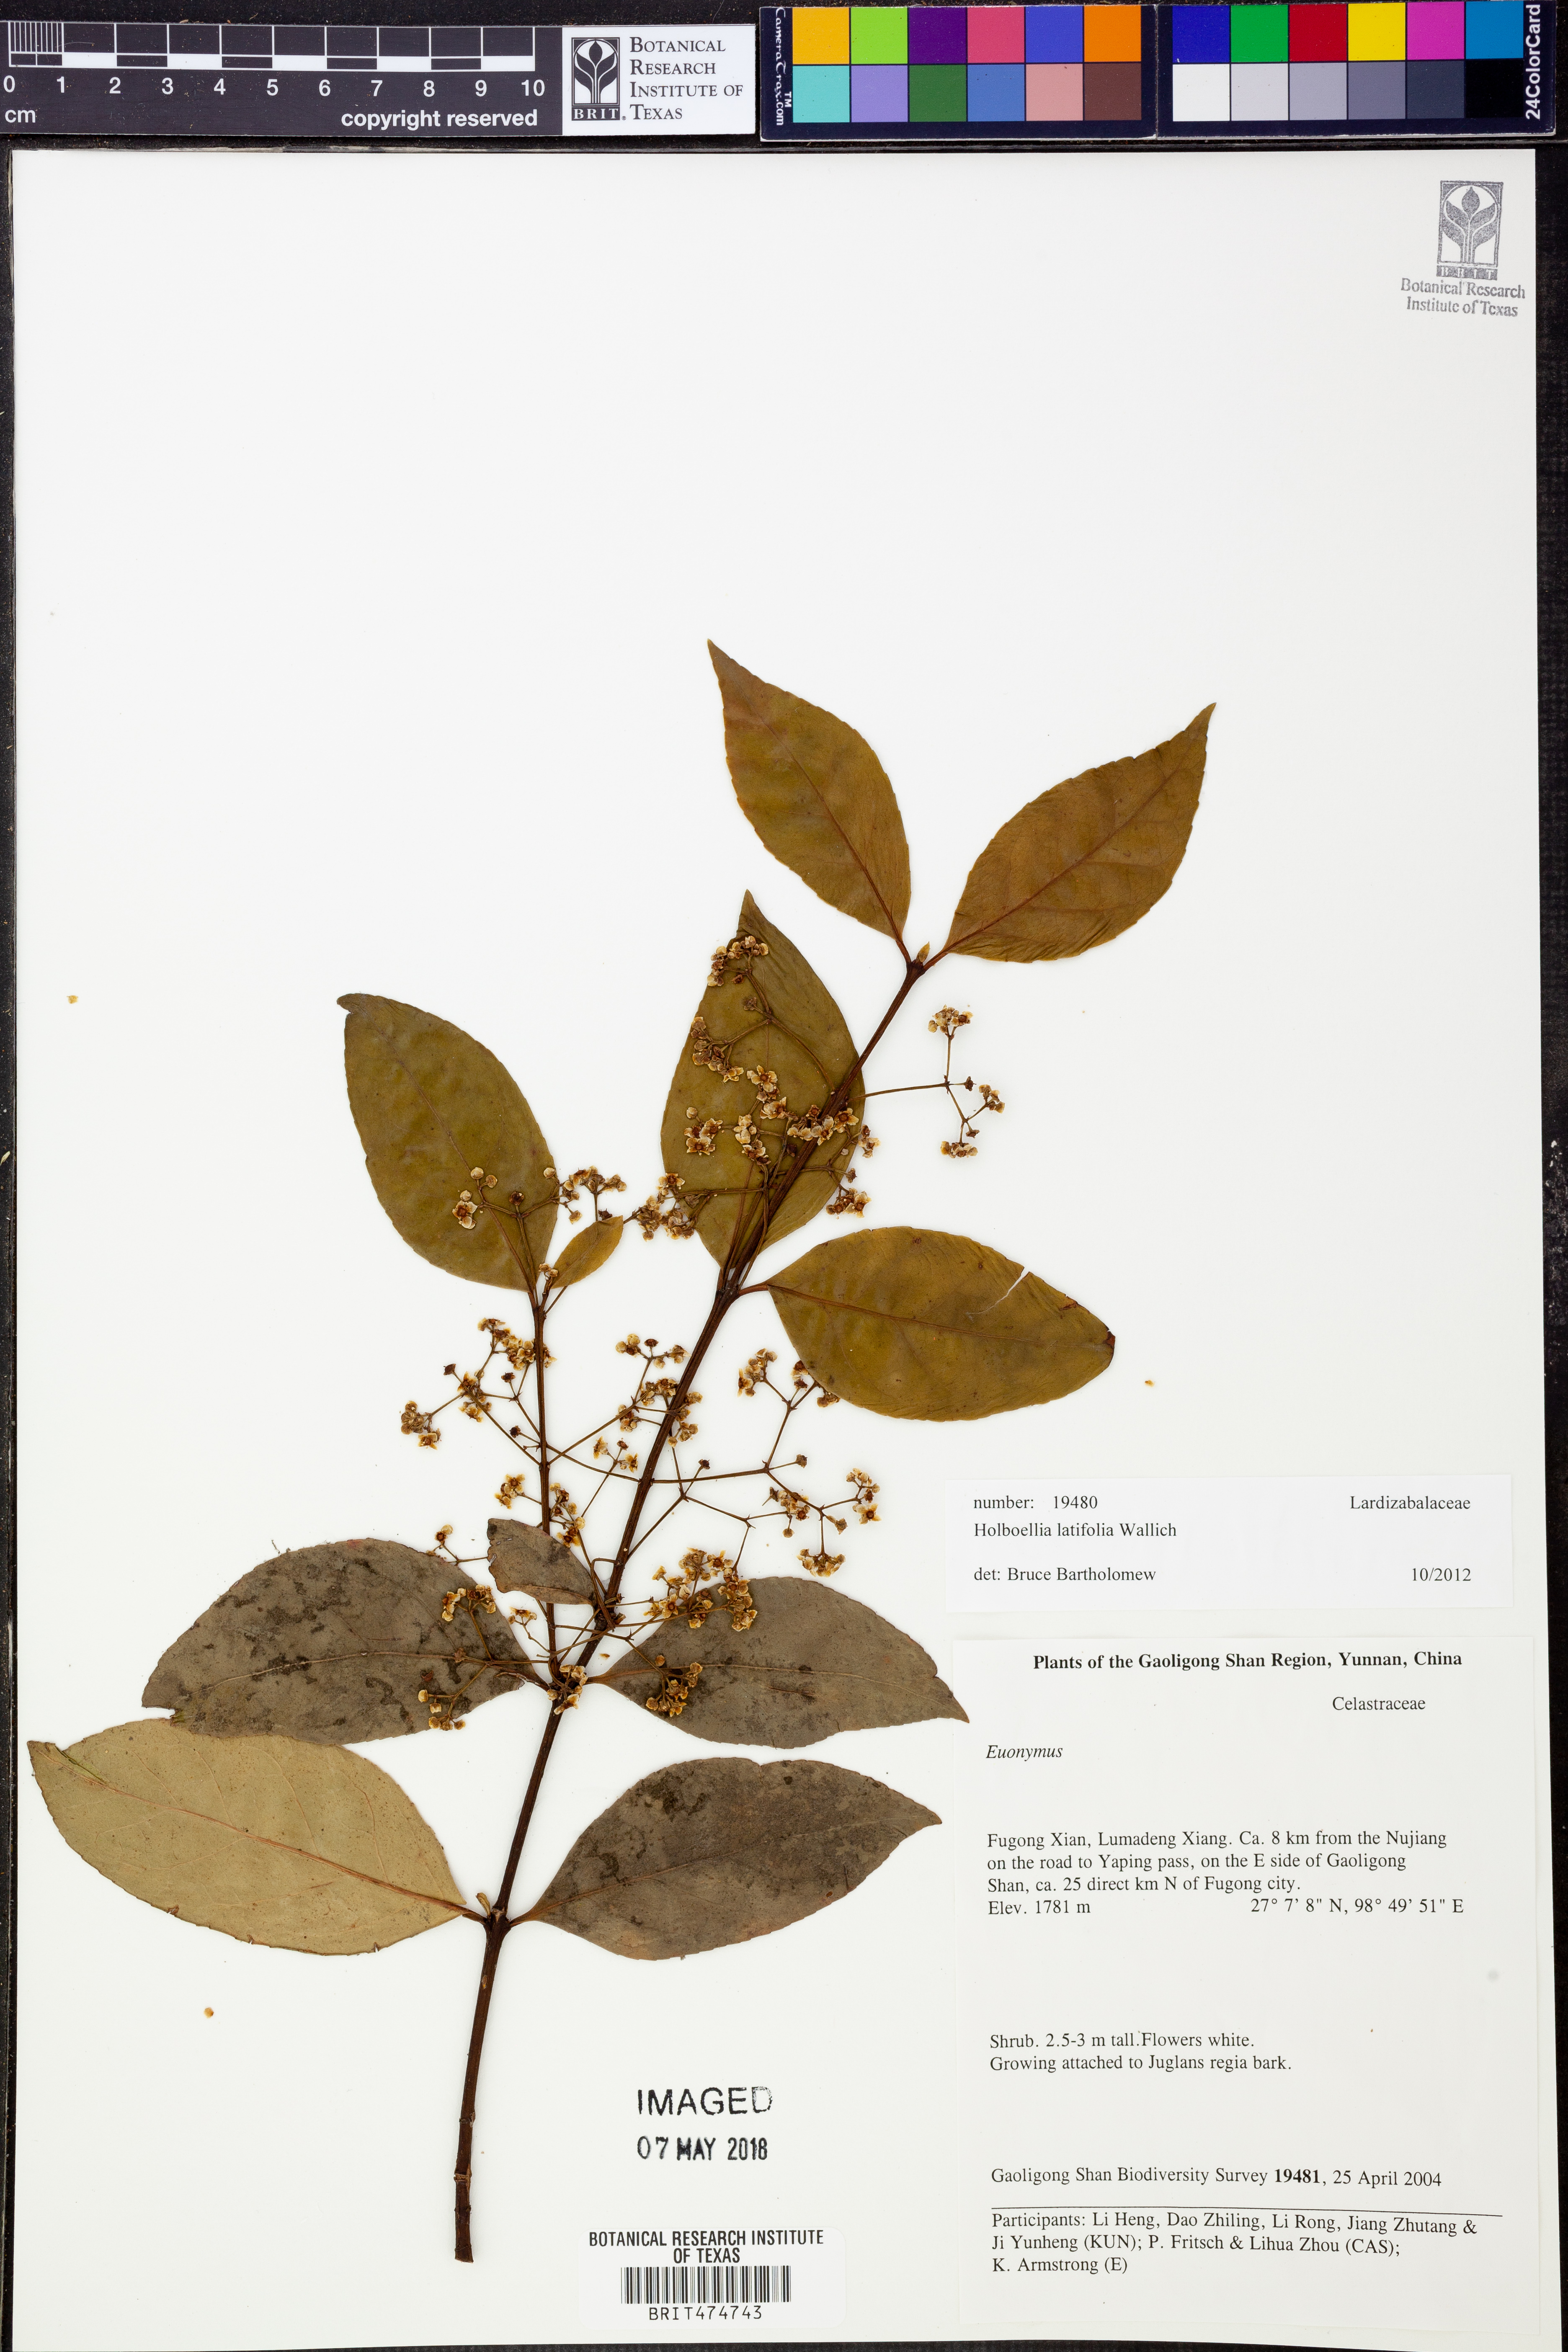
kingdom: Plantae
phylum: Tracheophyta
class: Magnoliopsida
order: Ranunculales
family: Lardizabalaceae
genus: Stauntonia
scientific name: Stauntonia latifolia
